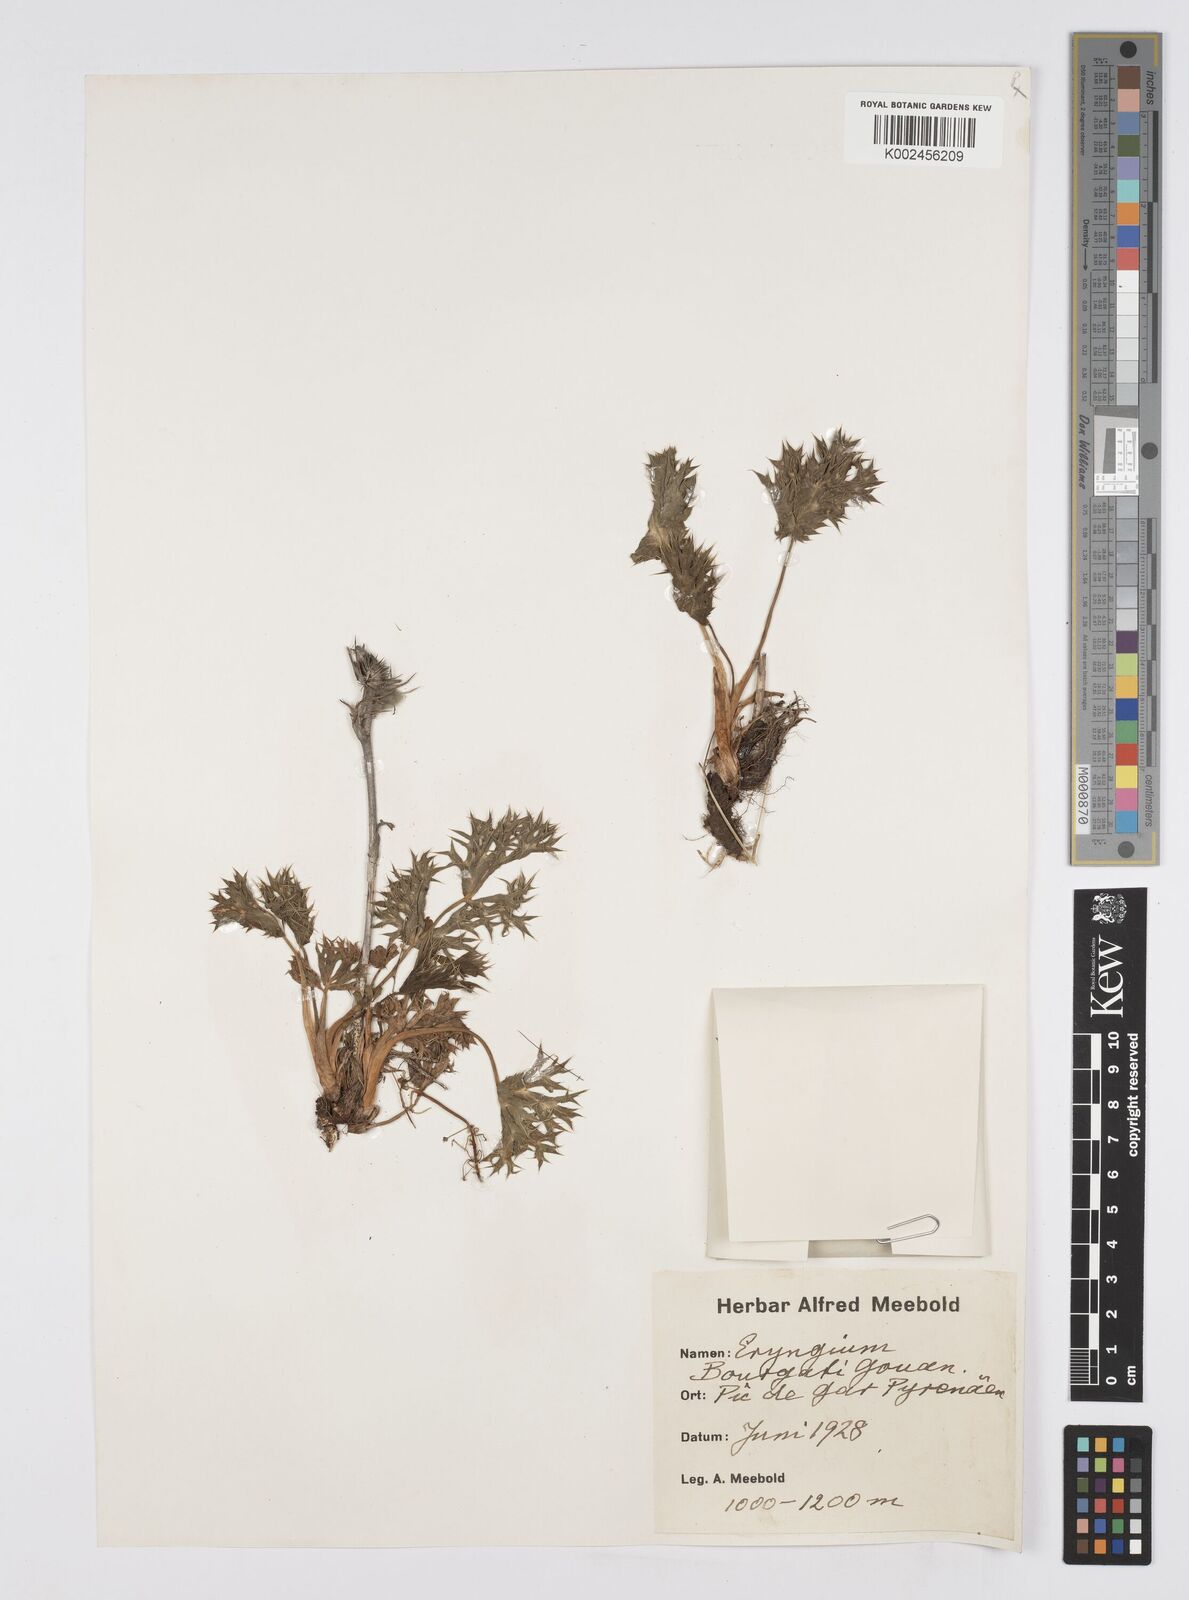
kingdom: Plantae
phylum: Tracheophyta
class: Magnoliopsida
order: Apiales
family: Apiaceae
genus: Eryngium
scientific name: Eryngium bourgatii
